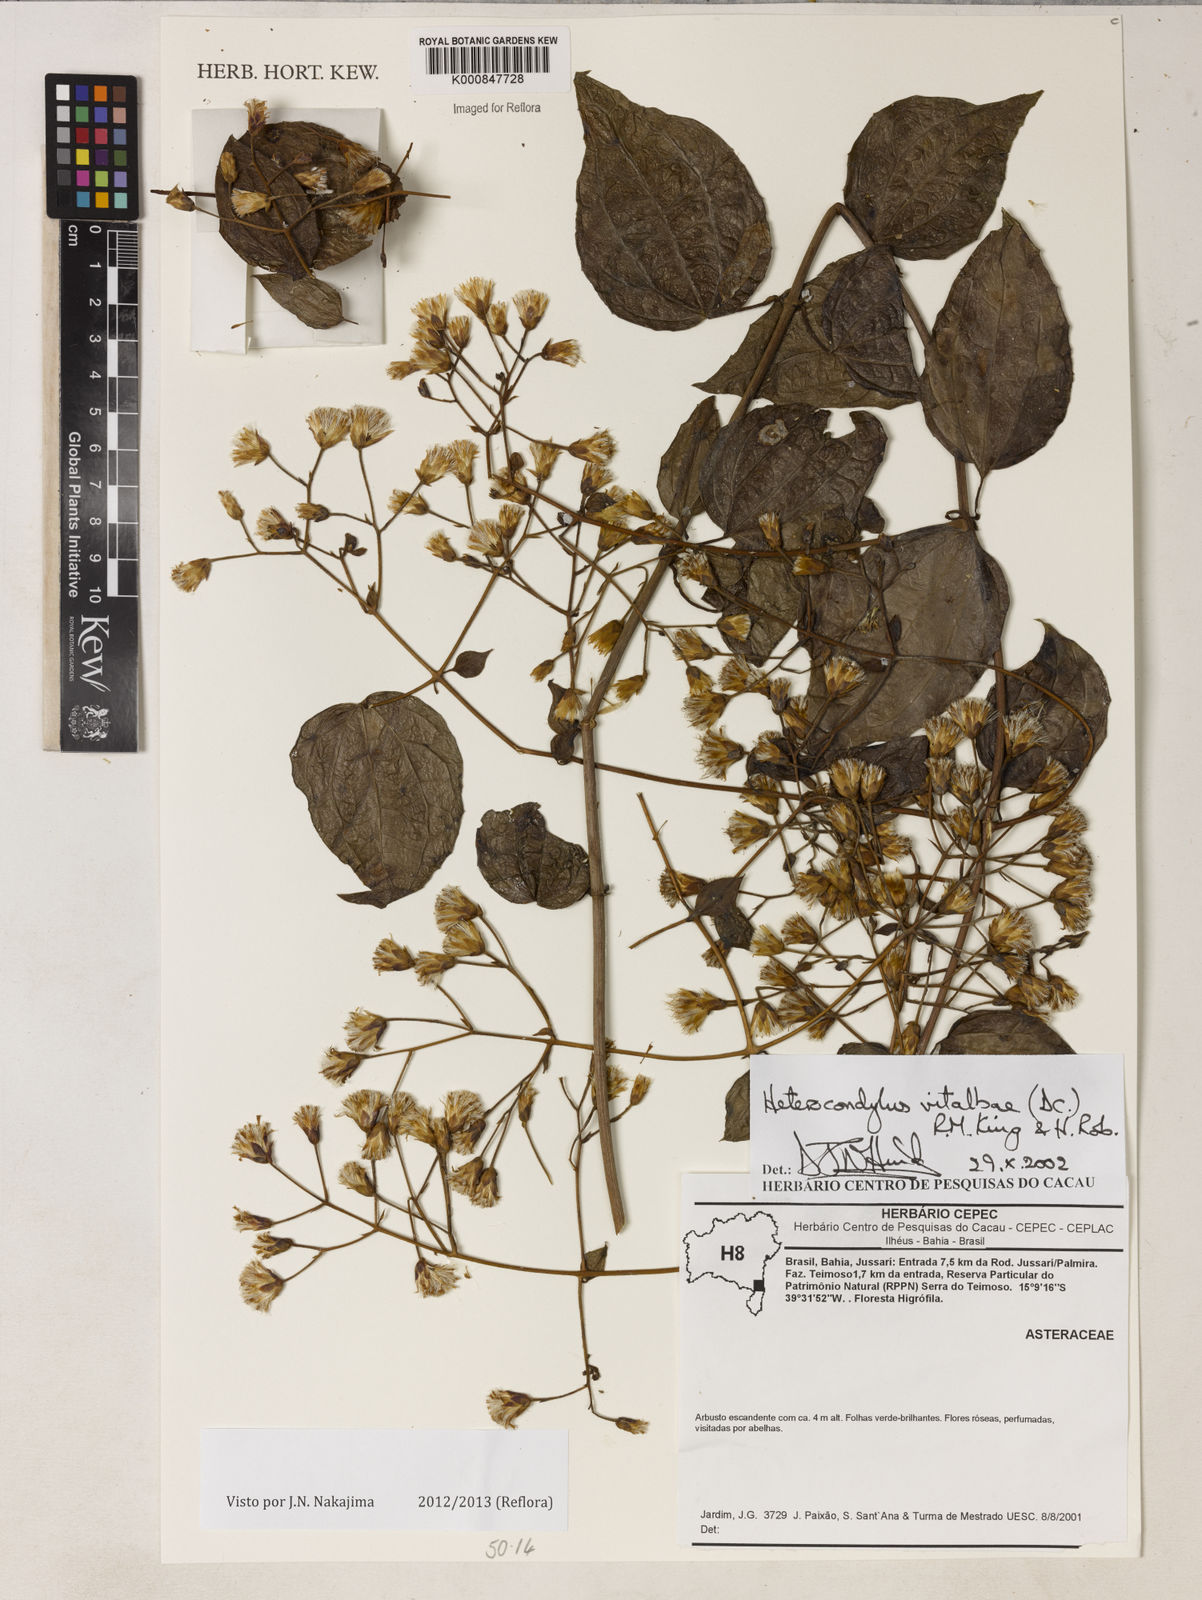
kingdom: Plantae
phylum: Tracheophyta
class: Magnoliopsida
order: Asterales
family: Asteraceae
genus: Heterocondylus
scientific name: Heterocondylus vitalbae
